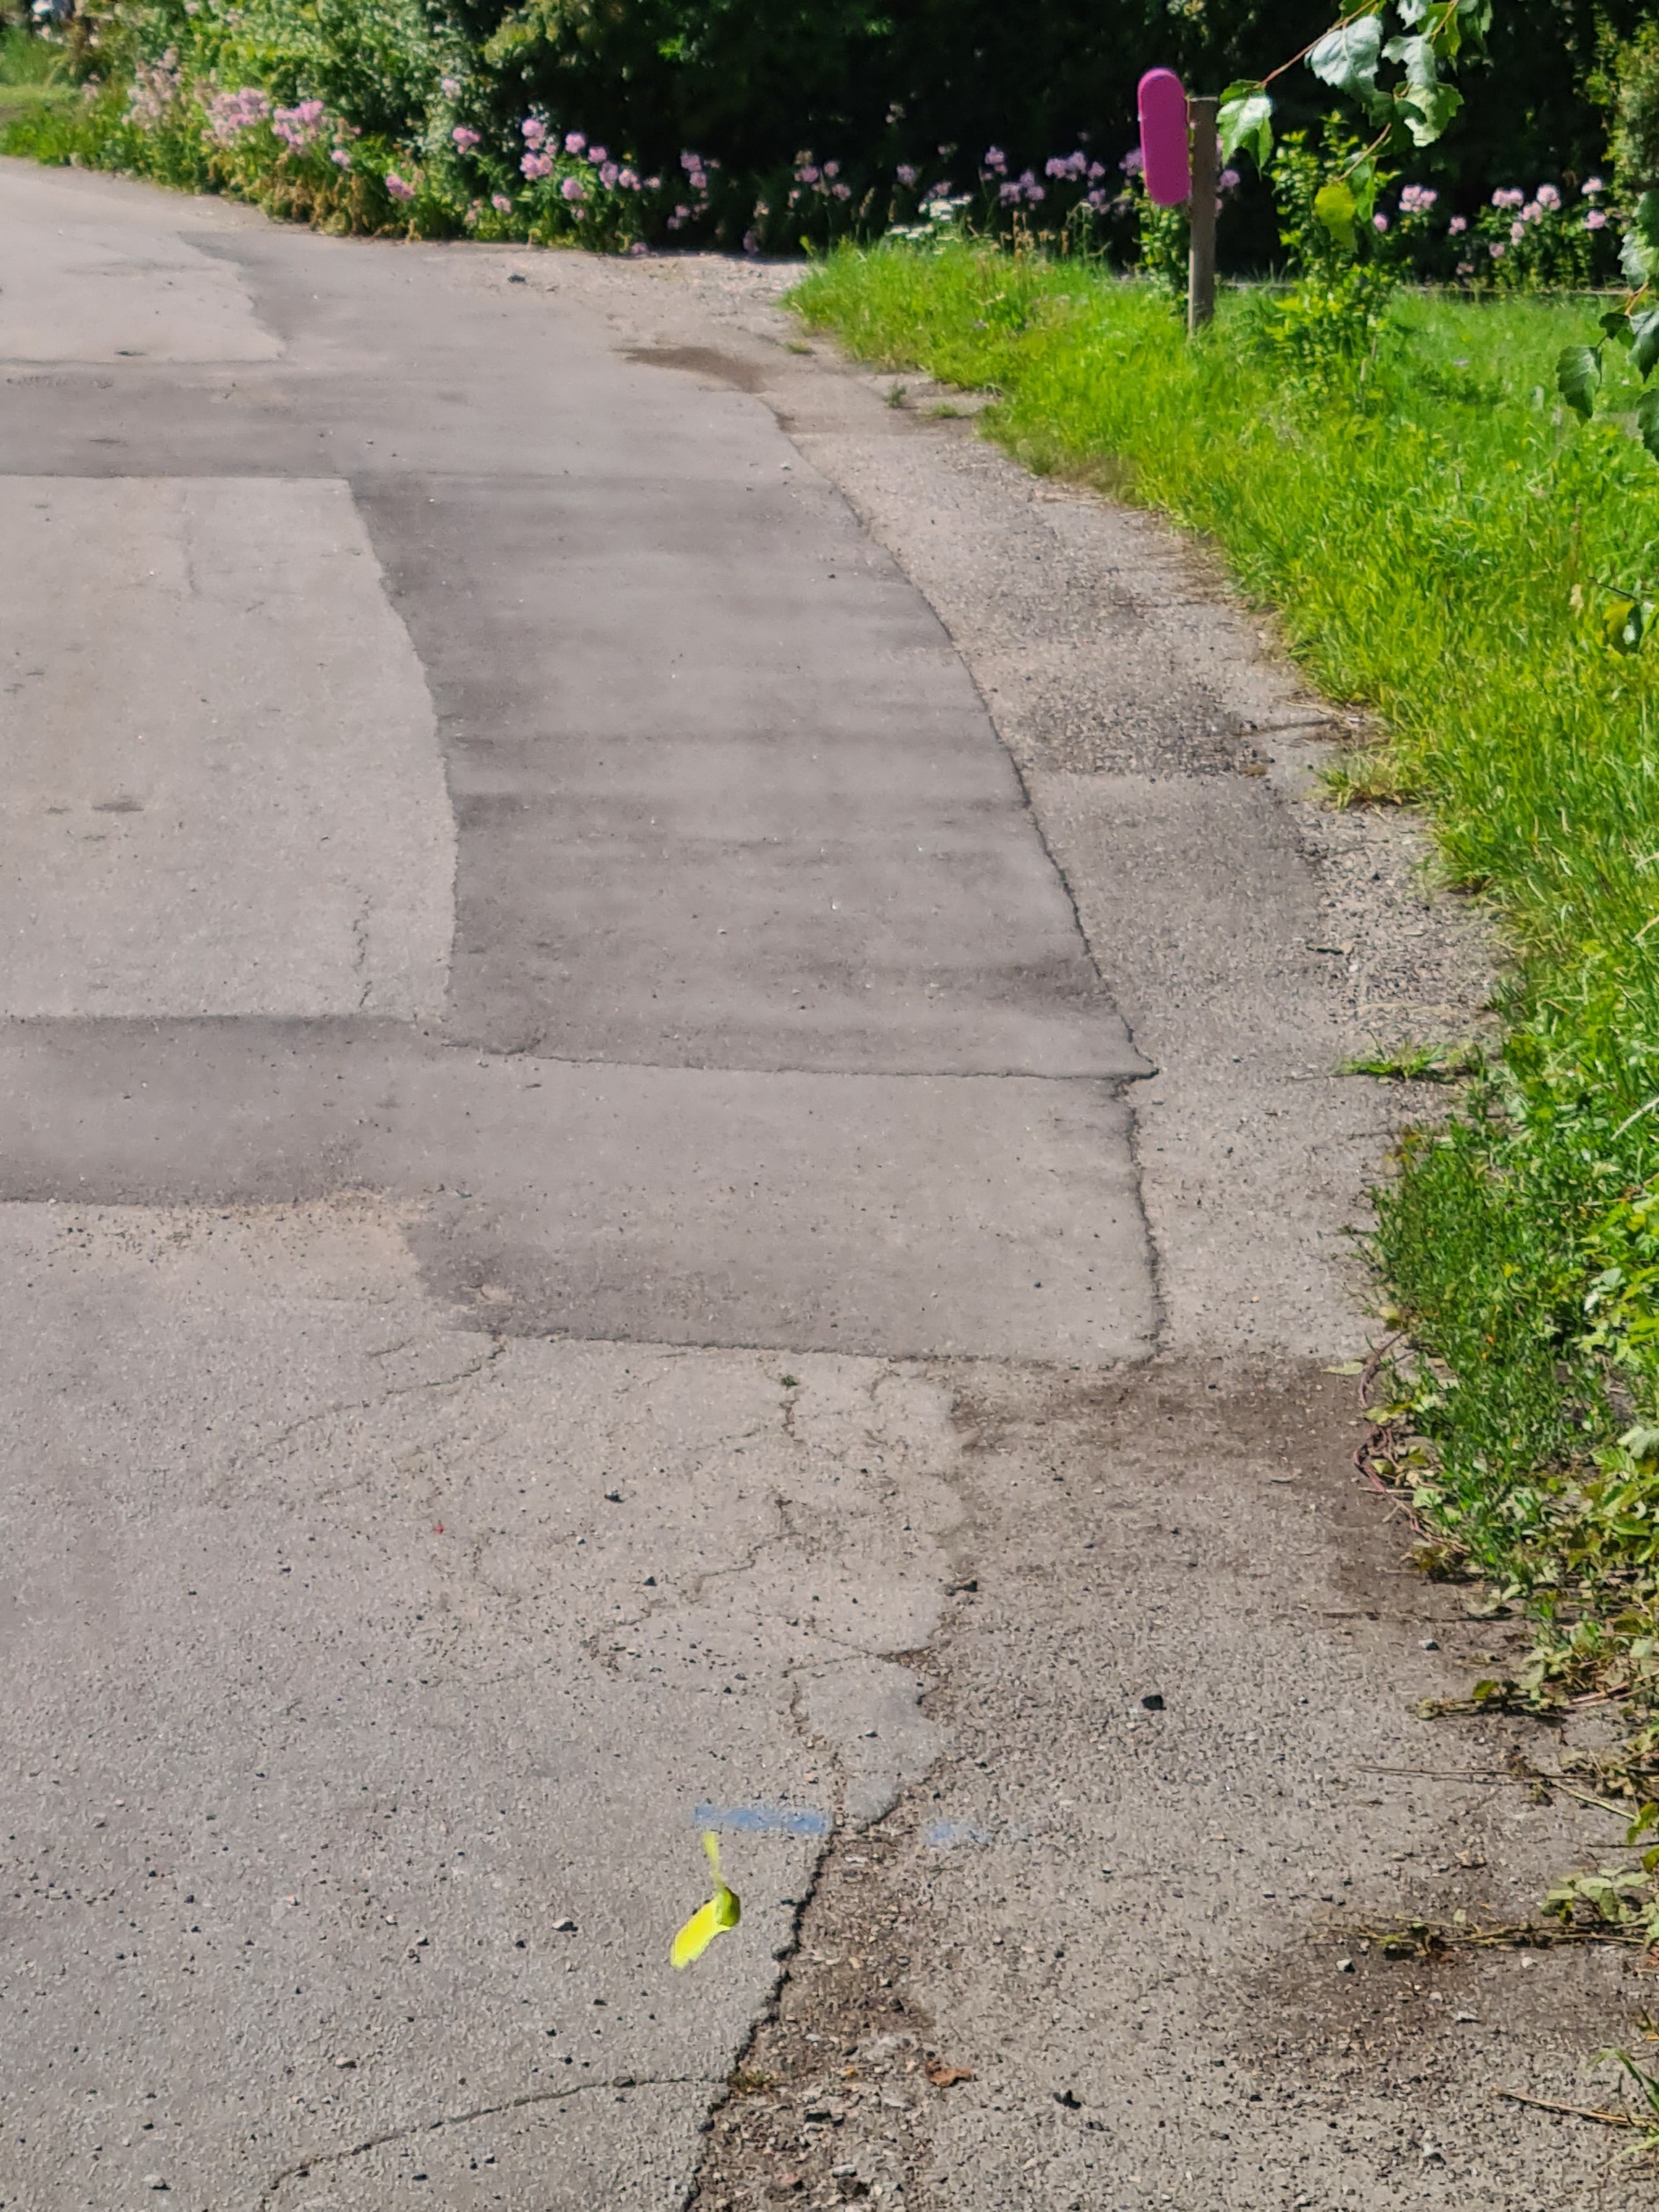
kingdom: Animalia
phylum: Arthropoda
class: Insecta
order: Lepidoptera
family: Pieridae
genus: Gonepteryx
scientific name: Gonepteryx rhamni
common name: Citronsommerfugl
